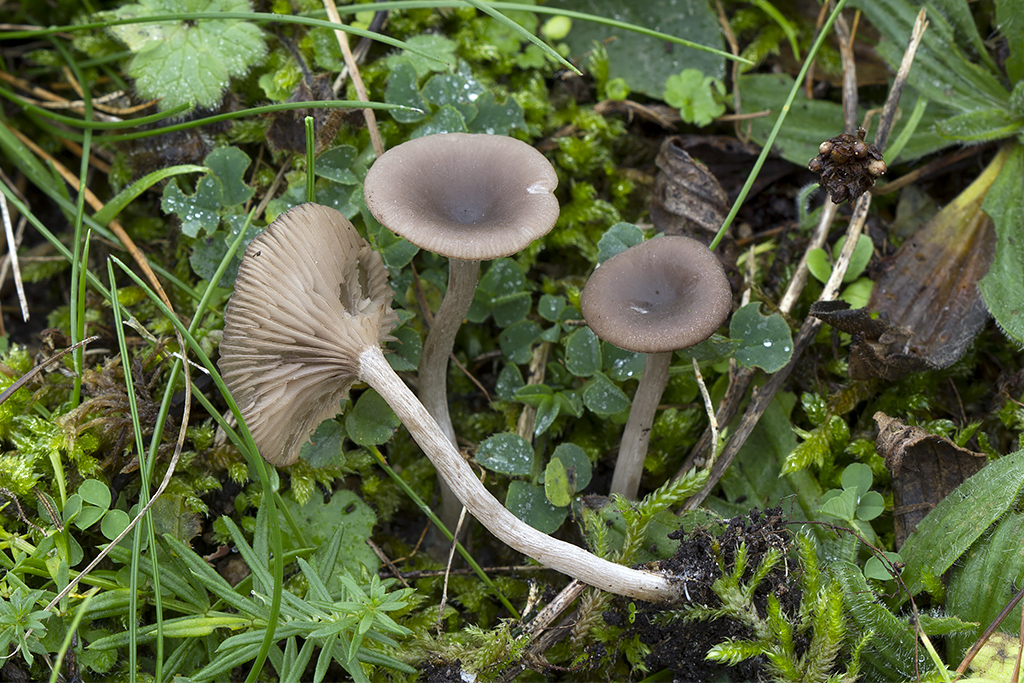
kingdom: Fungi
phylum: Basidiomycota
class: Agaricomycetes
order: Agaricales
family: Pseudoclitocybaceae
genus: Pseudoclitocybe
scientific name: Pseudoclitocybe expallens
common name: lille bægertragthat
